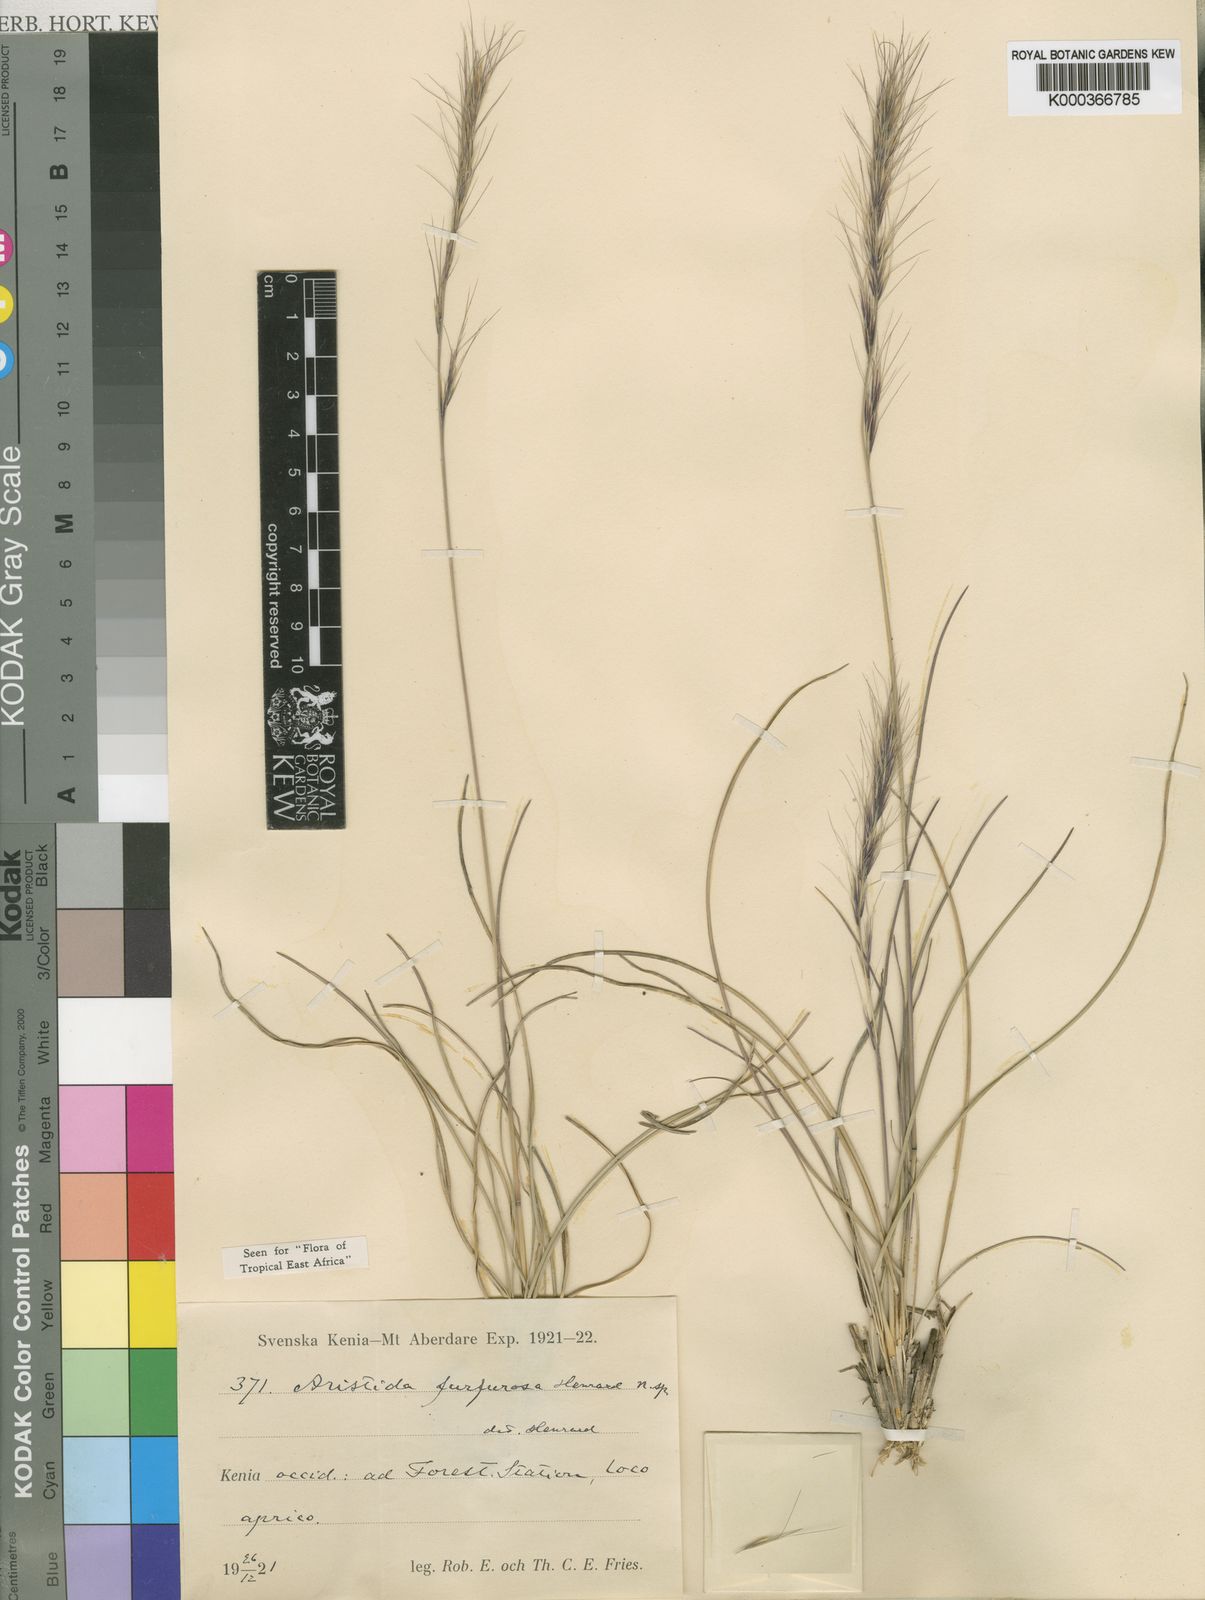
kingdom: Plantae
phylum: Tracheophyta
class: Liliopsida
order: Poales
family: Poaceae
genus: Aristida
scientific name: Aristida
